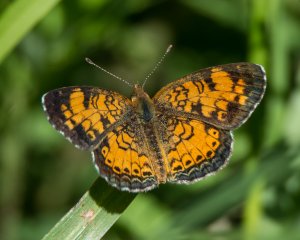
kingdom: Animalia
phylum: Arthropoda
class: Insecta
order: Lepidoptera
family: Nymphalidae
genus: Phyciodes
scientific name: Phyciodes tharos
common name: Pearl Crescent
